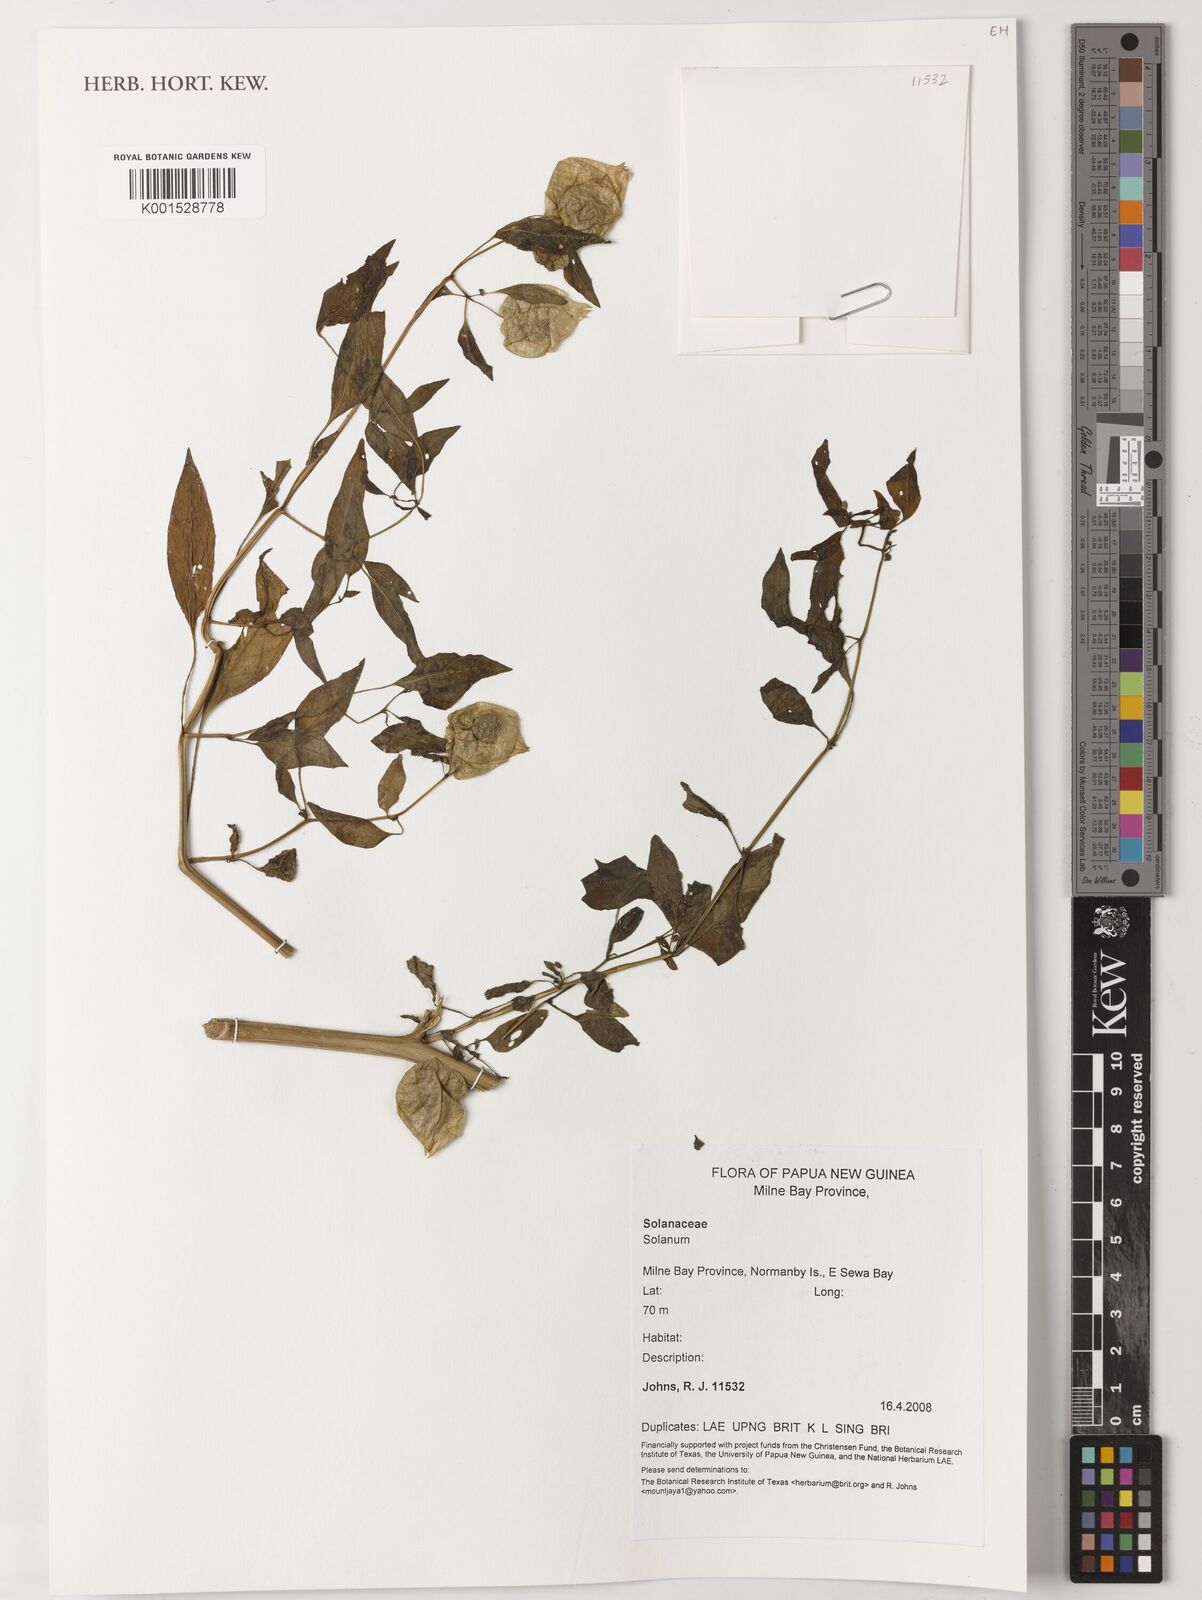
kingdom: Plantae
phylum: Tracheophyta
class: Magnoliopsida
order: Solanales
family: Solanaceae
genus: Solanum
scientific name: Solanum
